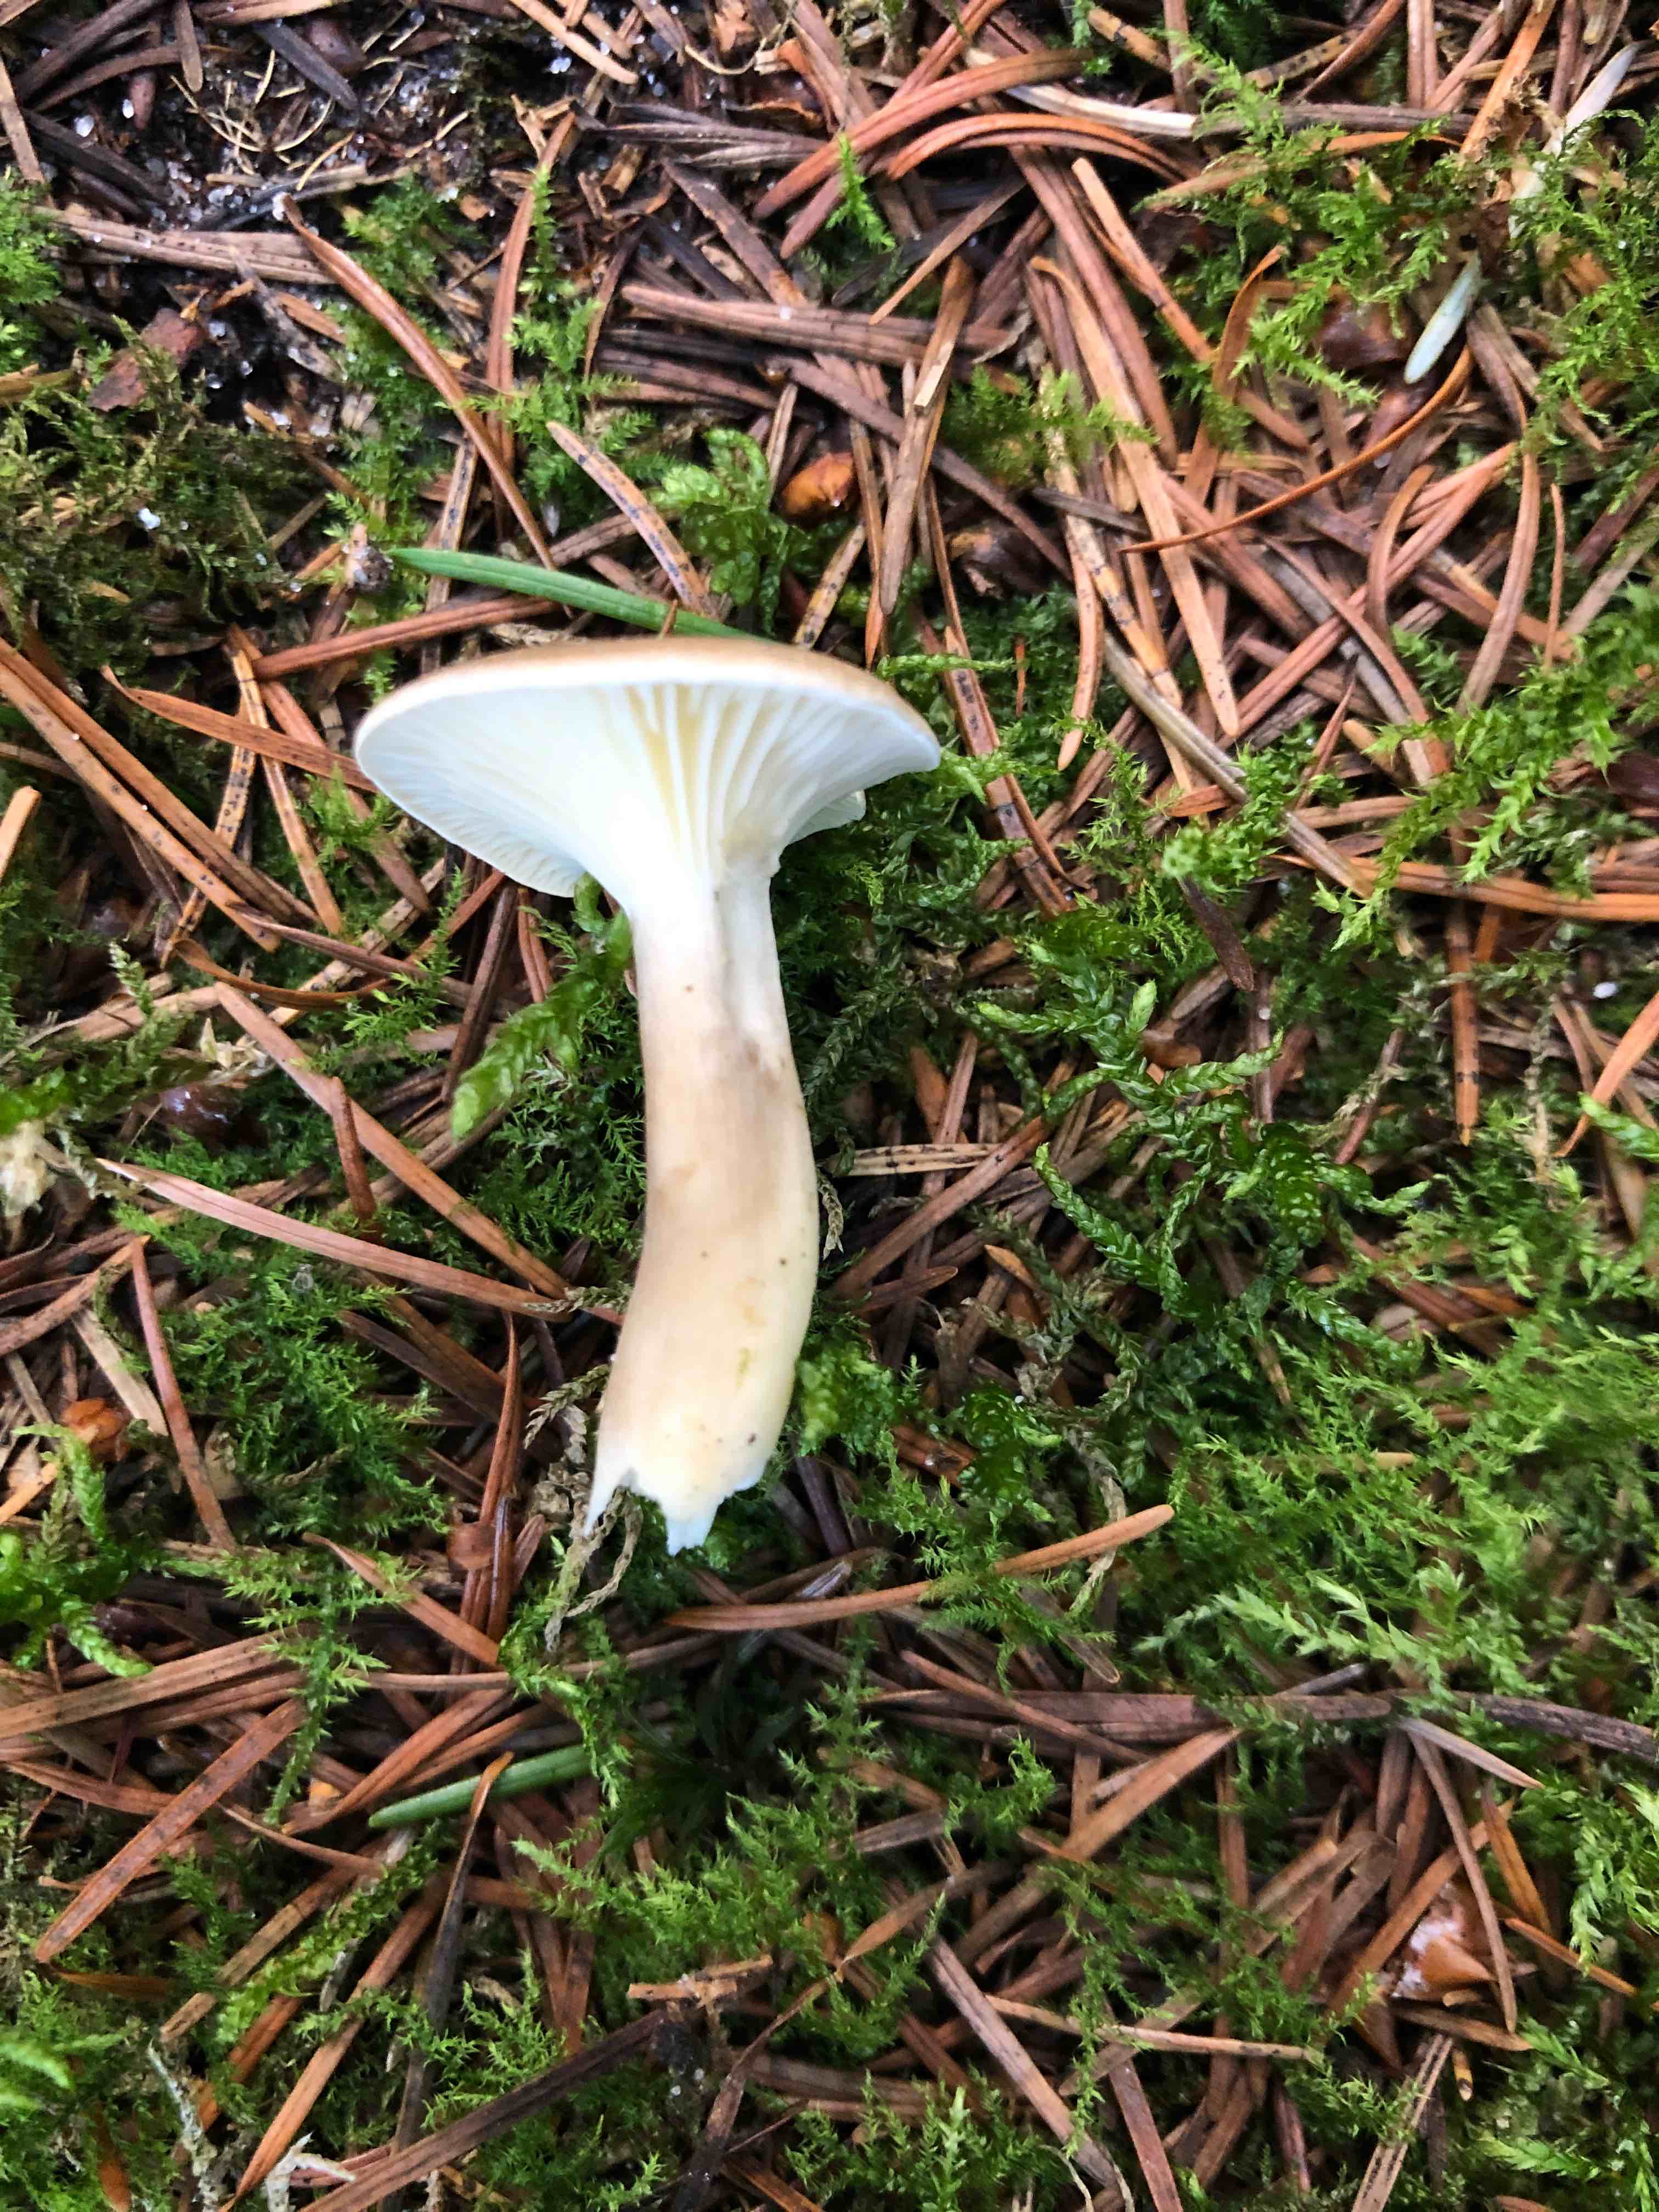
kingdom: Fungi
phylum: Basidiomycota
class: Agaricomycetes
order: Agaricales
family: Hygrophoraceae
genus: Ampulloclitocybe
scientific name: Ampulloclitocybe clavipes
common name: køllefod
